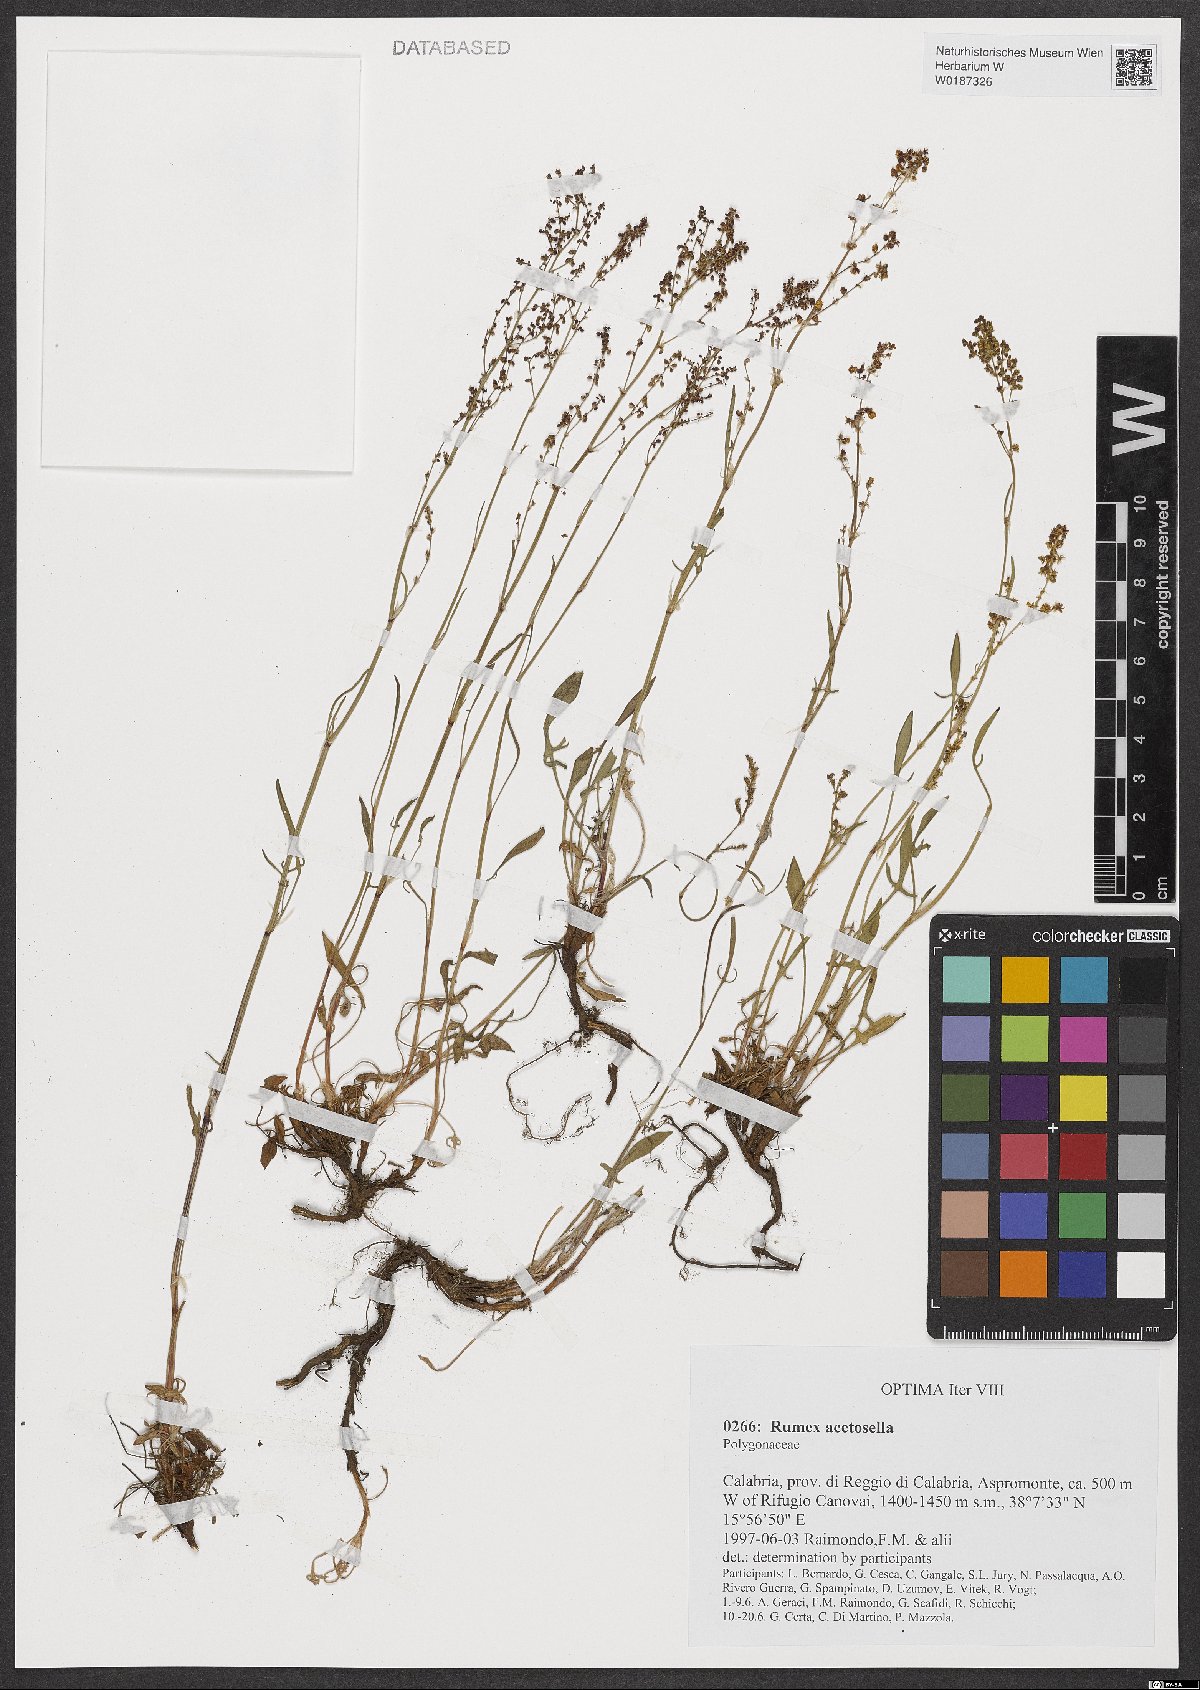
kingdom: Plantae
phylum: Tracheophyta
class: Magnoliopsida
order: Caryophyllales
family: Polygonaceae
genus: Rumex
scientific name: Rumex acetosella
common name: Common sheep sorrel
